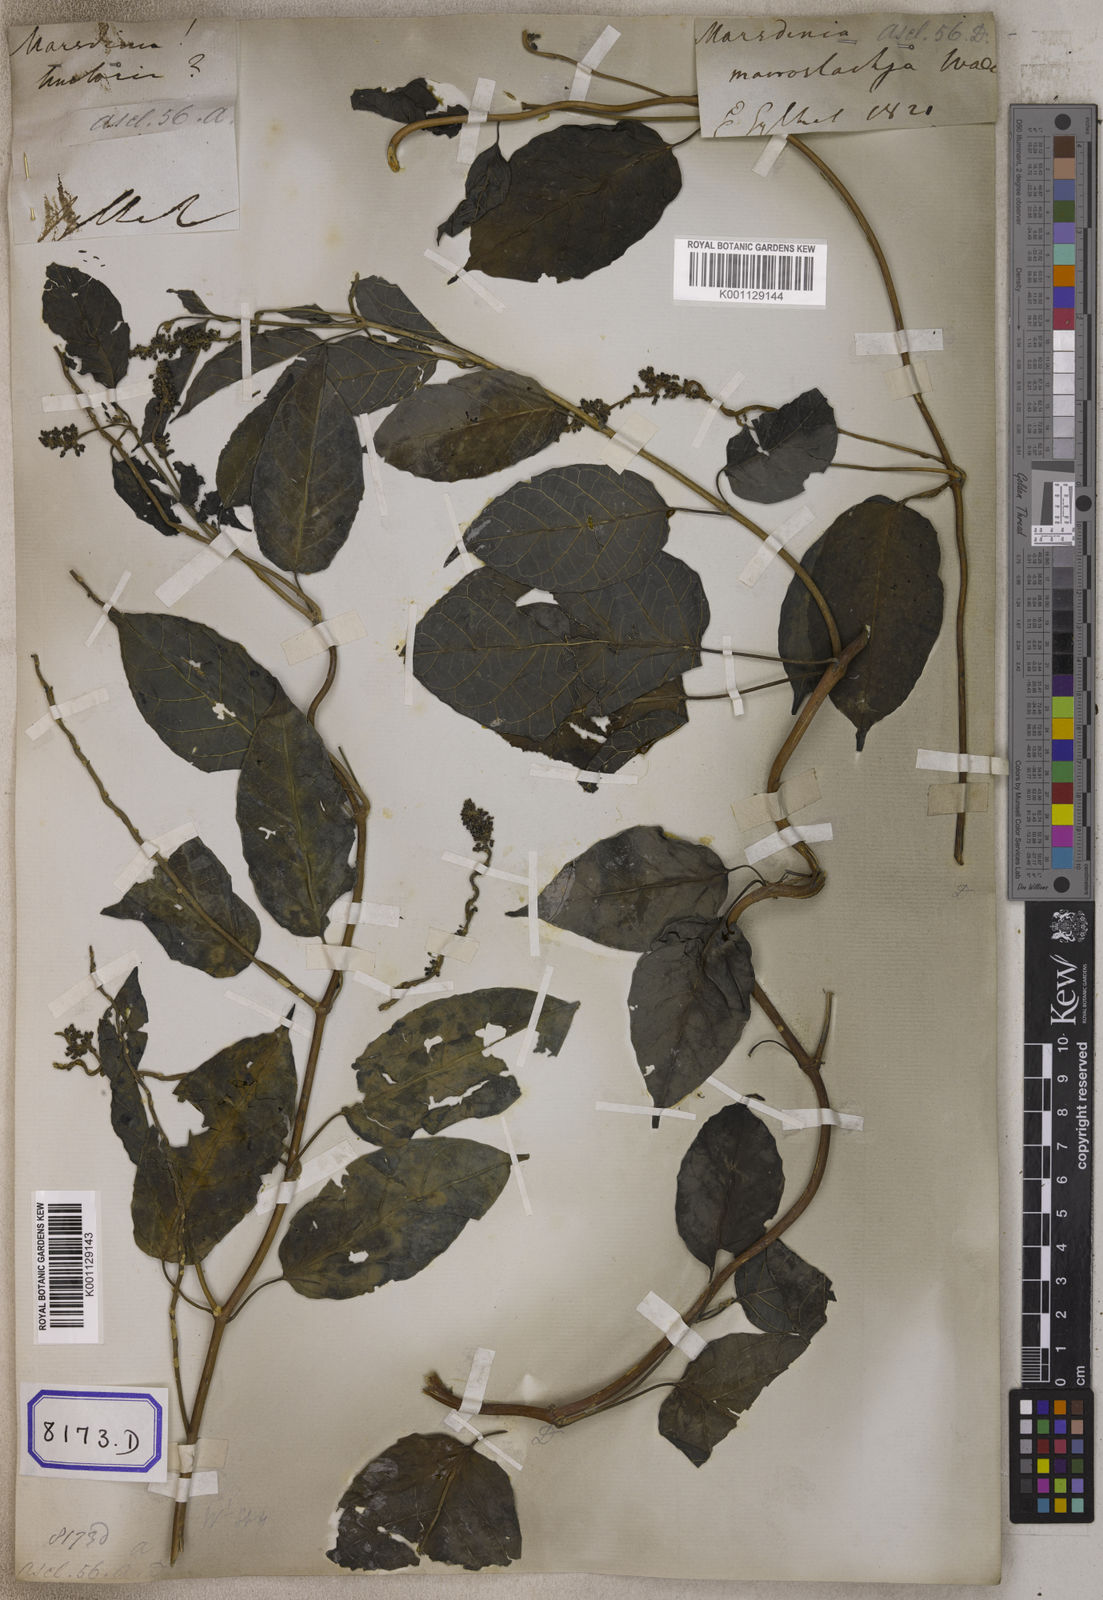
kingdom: Plantae
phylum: Tracheophyta
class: Magnoliopsida
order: Gentianales
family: Apocynaceae
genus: Marsdenia
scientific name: Marsdenia tinctoria
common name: Climbing-indigo
